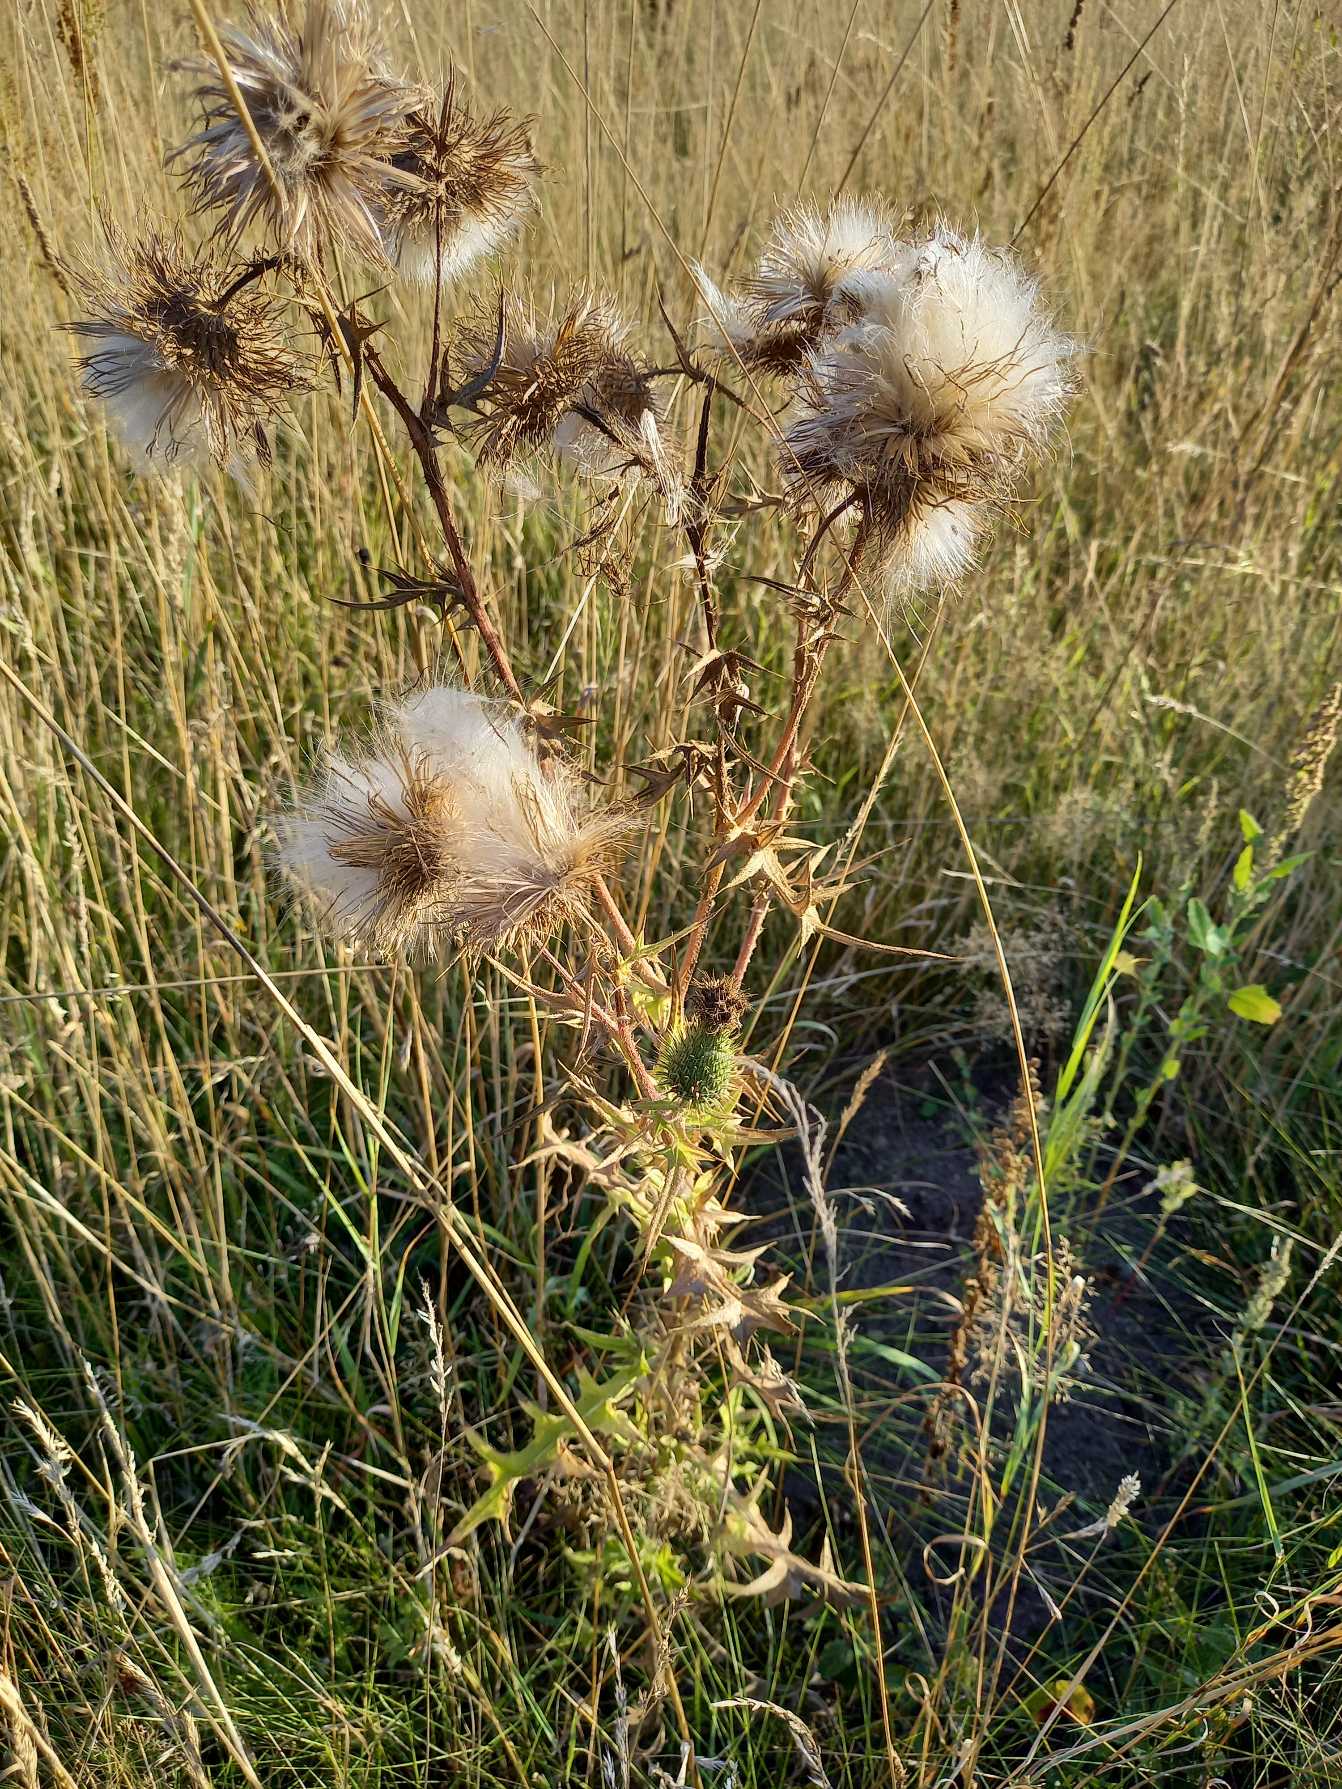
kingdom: Plantae
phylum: Tracheophyta
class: Magnoliopsida
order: Asterales
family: Asteraceae
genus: Cirsium
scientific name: Cirsium vulgare
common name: Horse-tidsel
